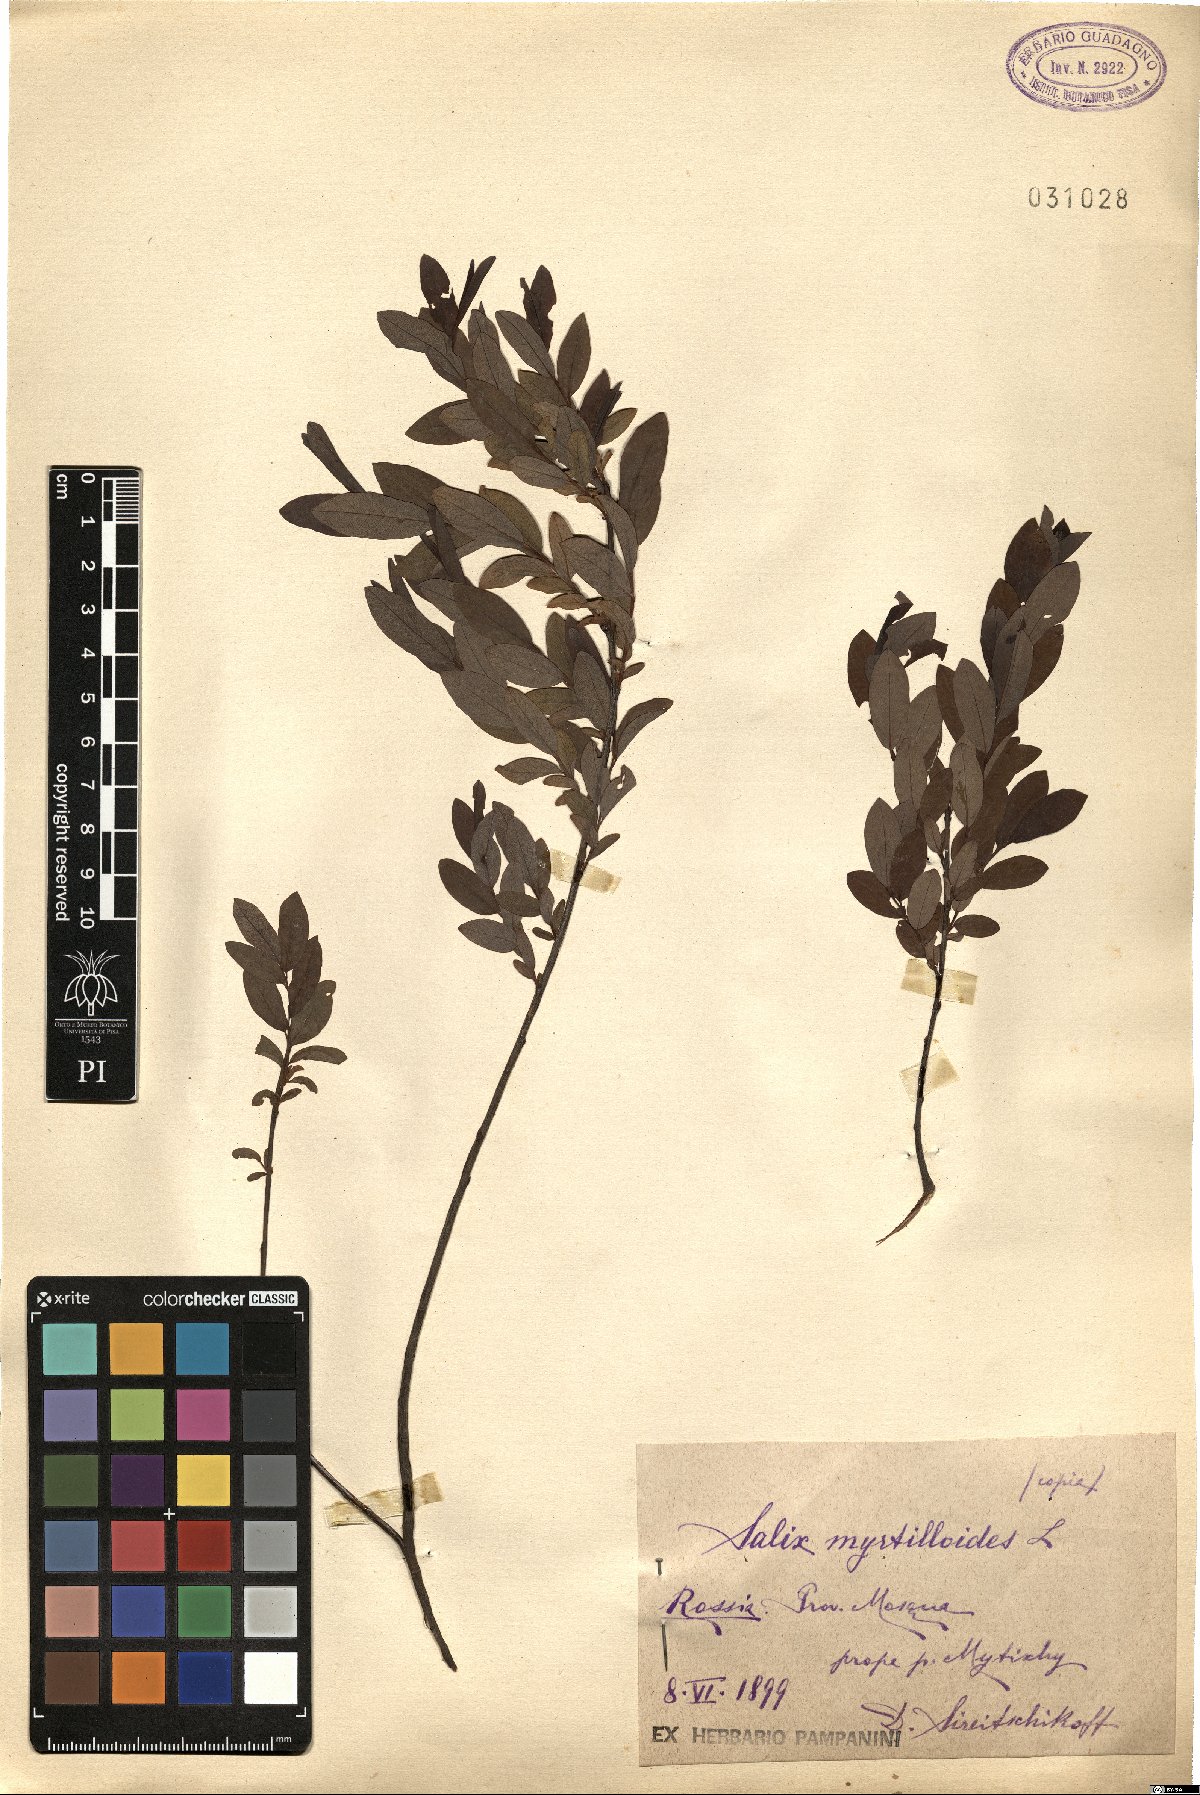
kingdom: Plantae
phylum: Tracheophyta
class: Magnoliopsida
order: Malpighiales
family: Salicaceae
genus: Salix
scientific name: Salix myrtilloides
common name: Myrtle-leaved willow
